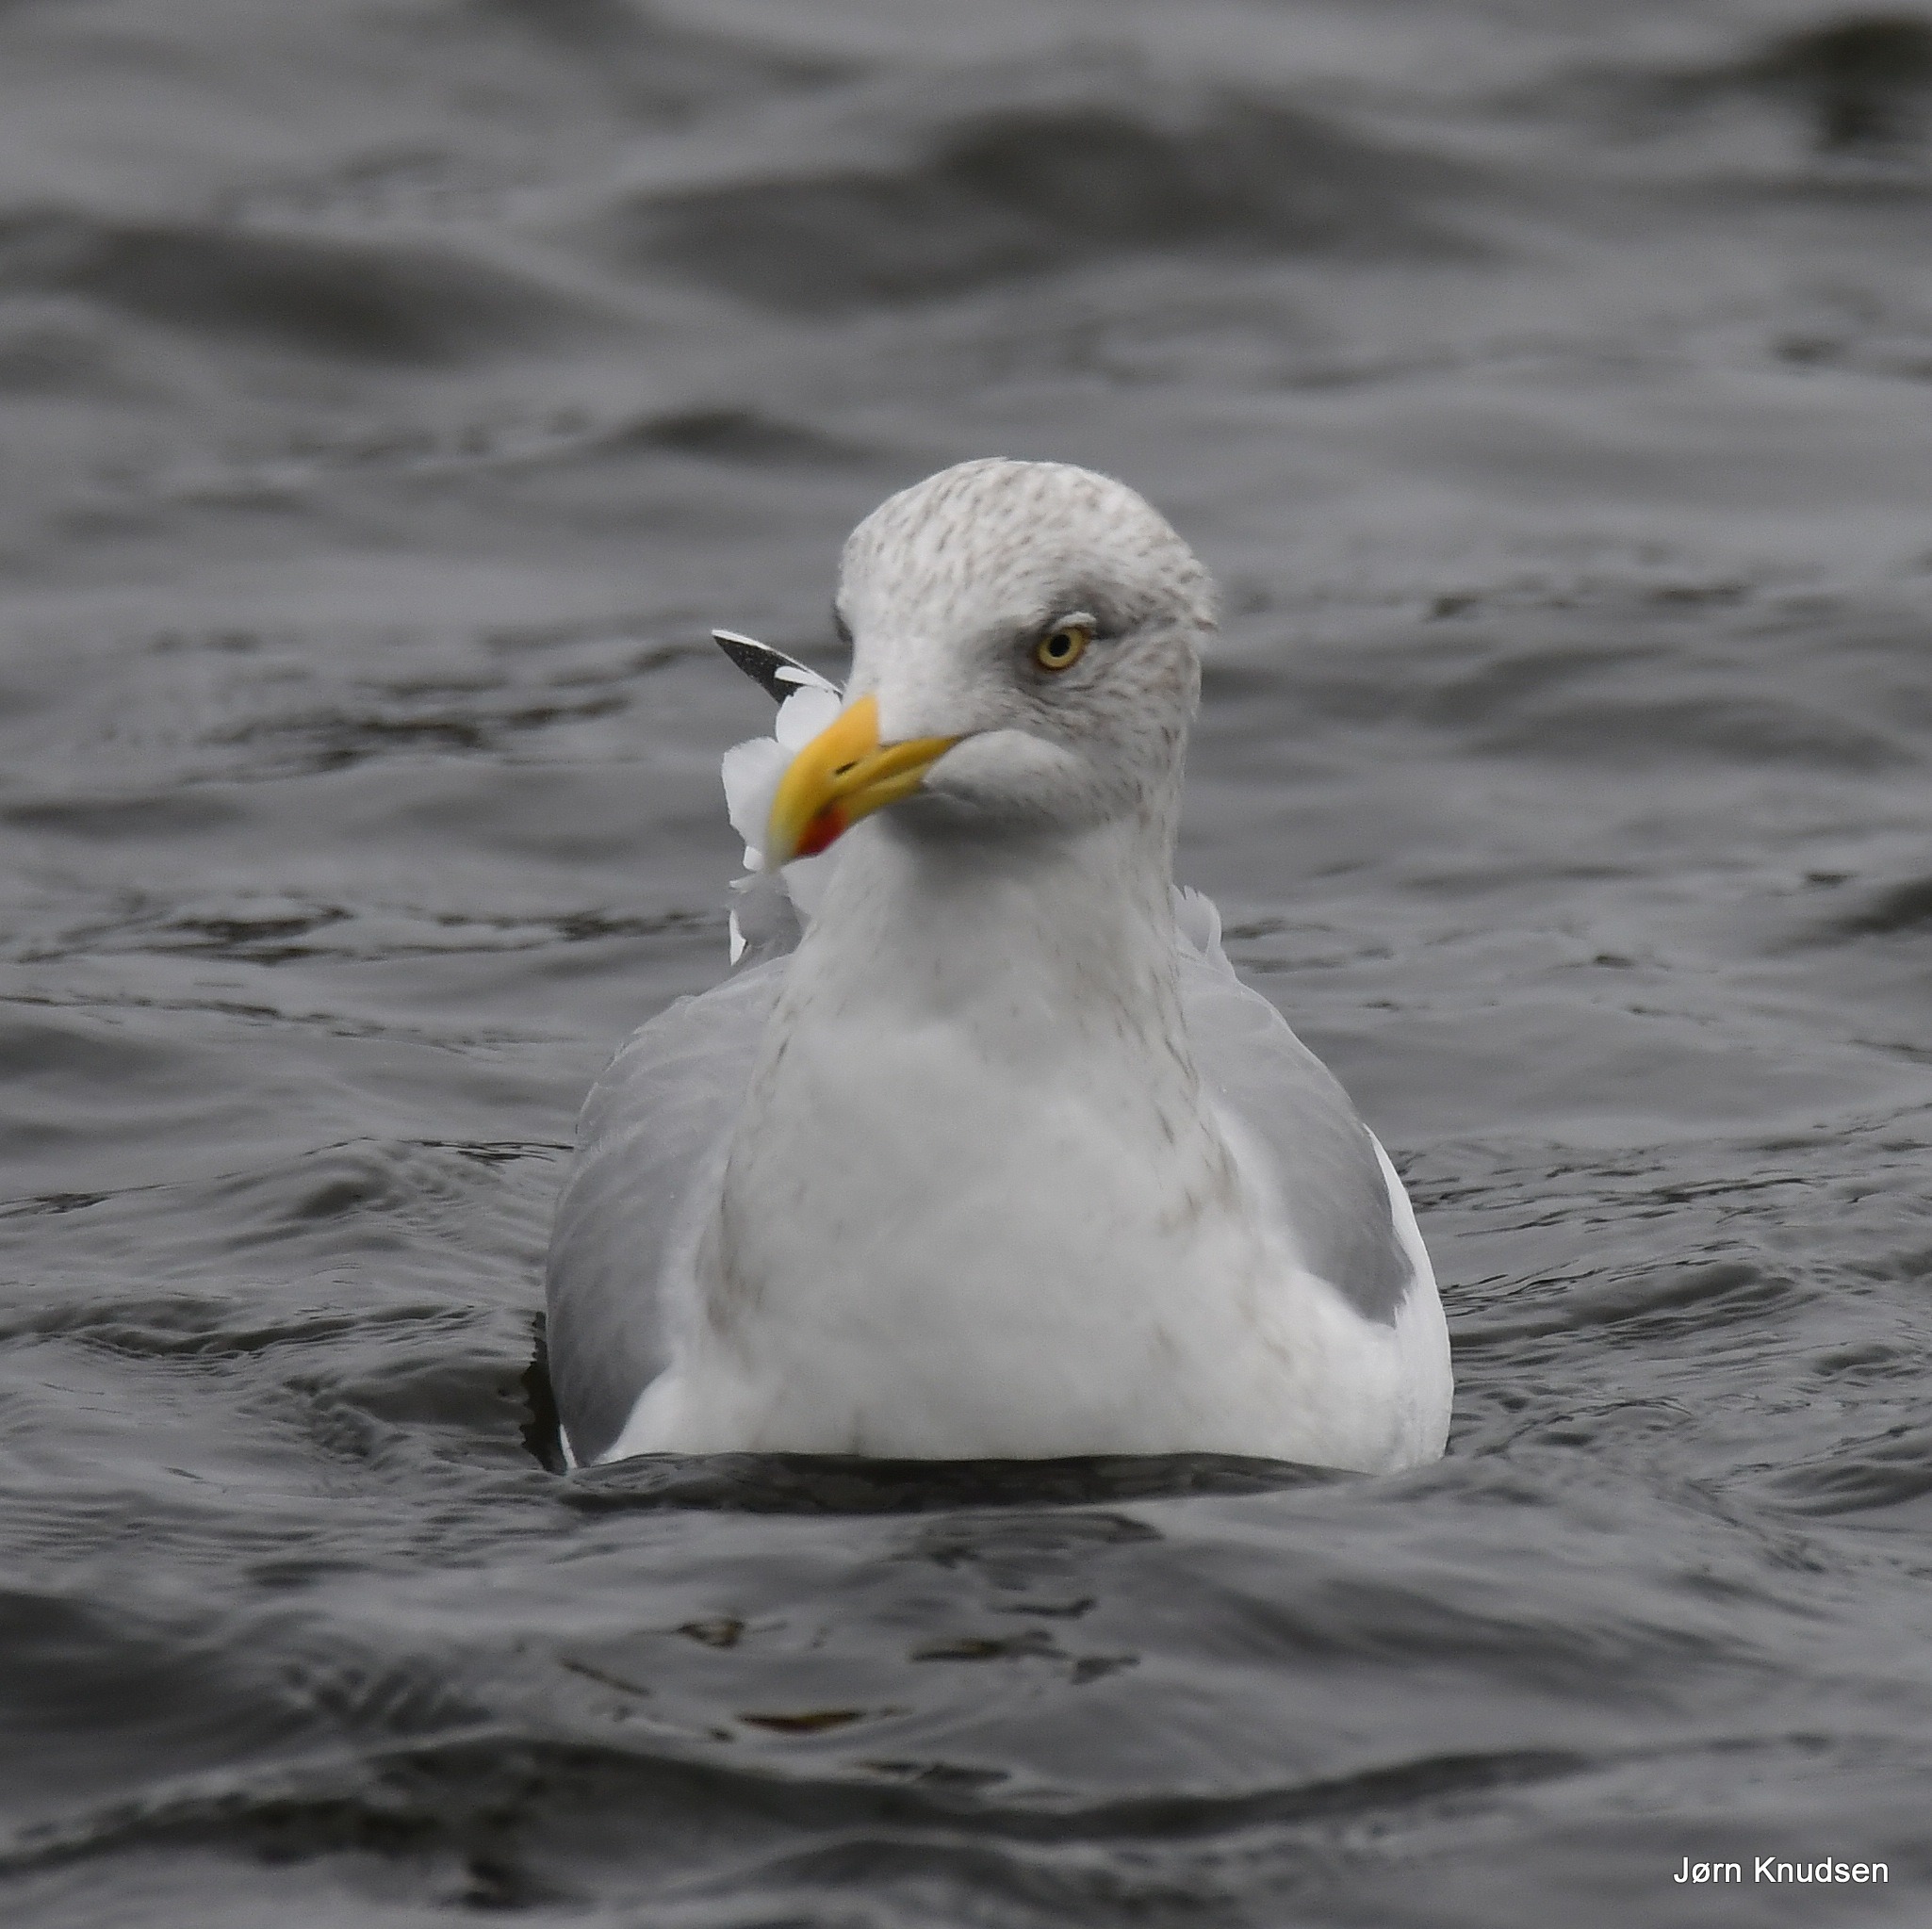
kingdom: Animalia
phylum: Chordata
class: Aves
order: Charadriiformes
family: Laridae
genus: Larus
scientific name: Larus argentatus
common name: Sølvmåge
